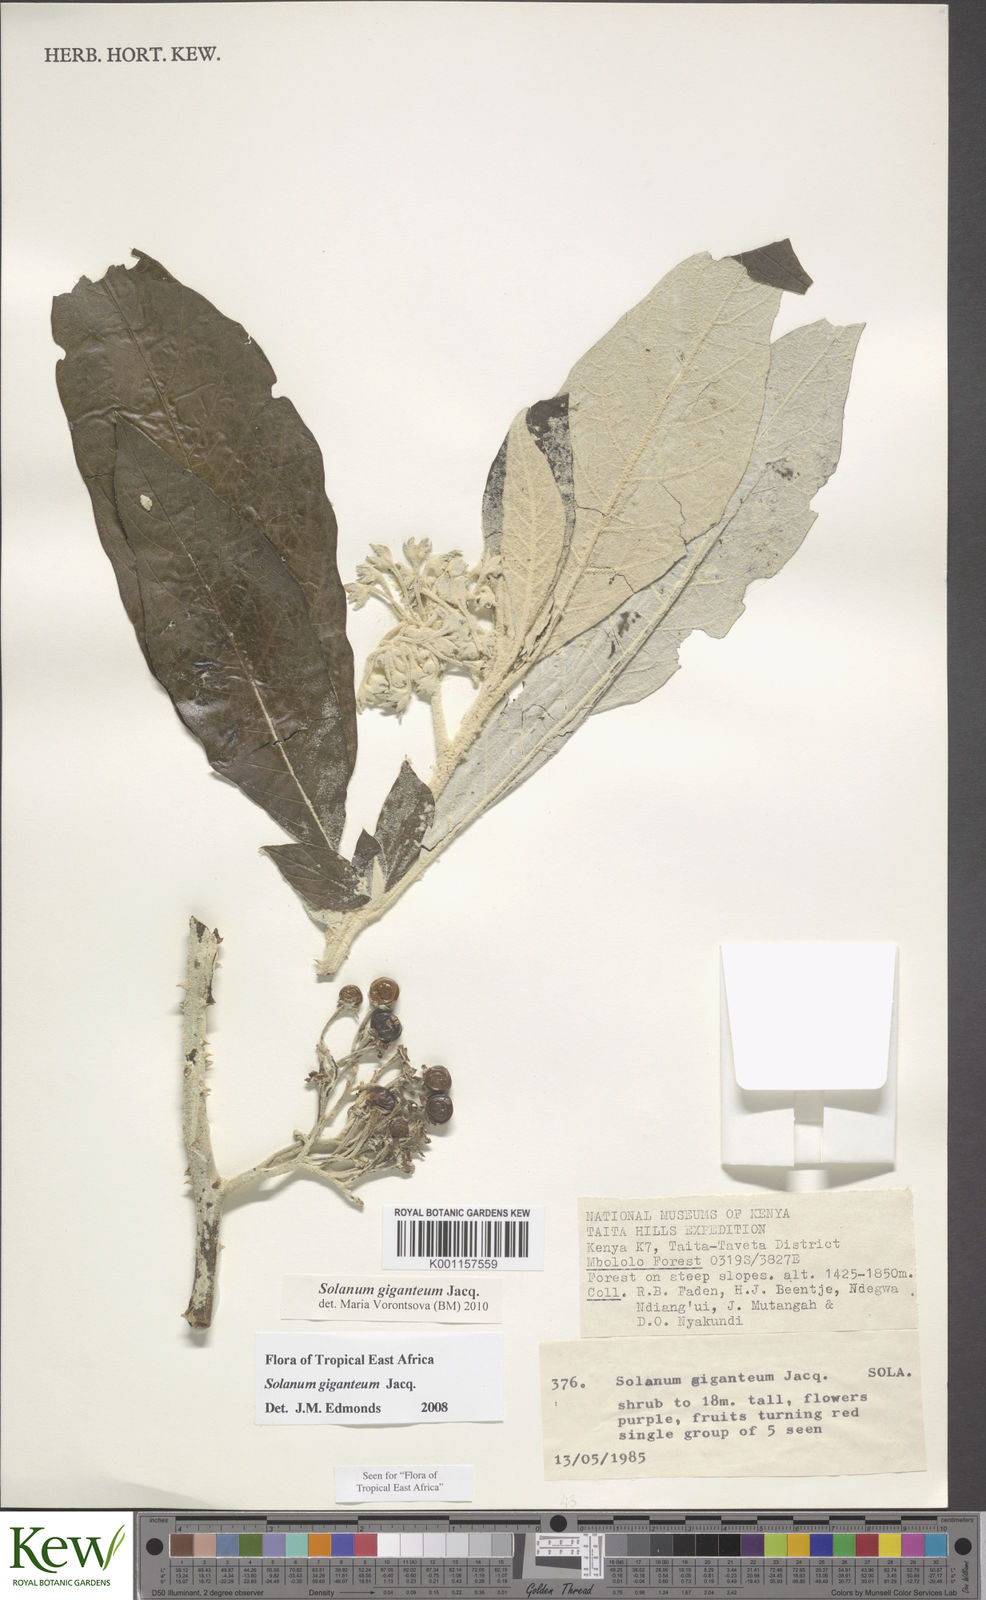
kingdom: Plantae
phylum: Tracheophyta
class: Magnoliopsida
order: Solanales
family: Solanaceae
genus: Solanum
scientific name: Solanum giganteum
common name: Healing-leaf-tree
